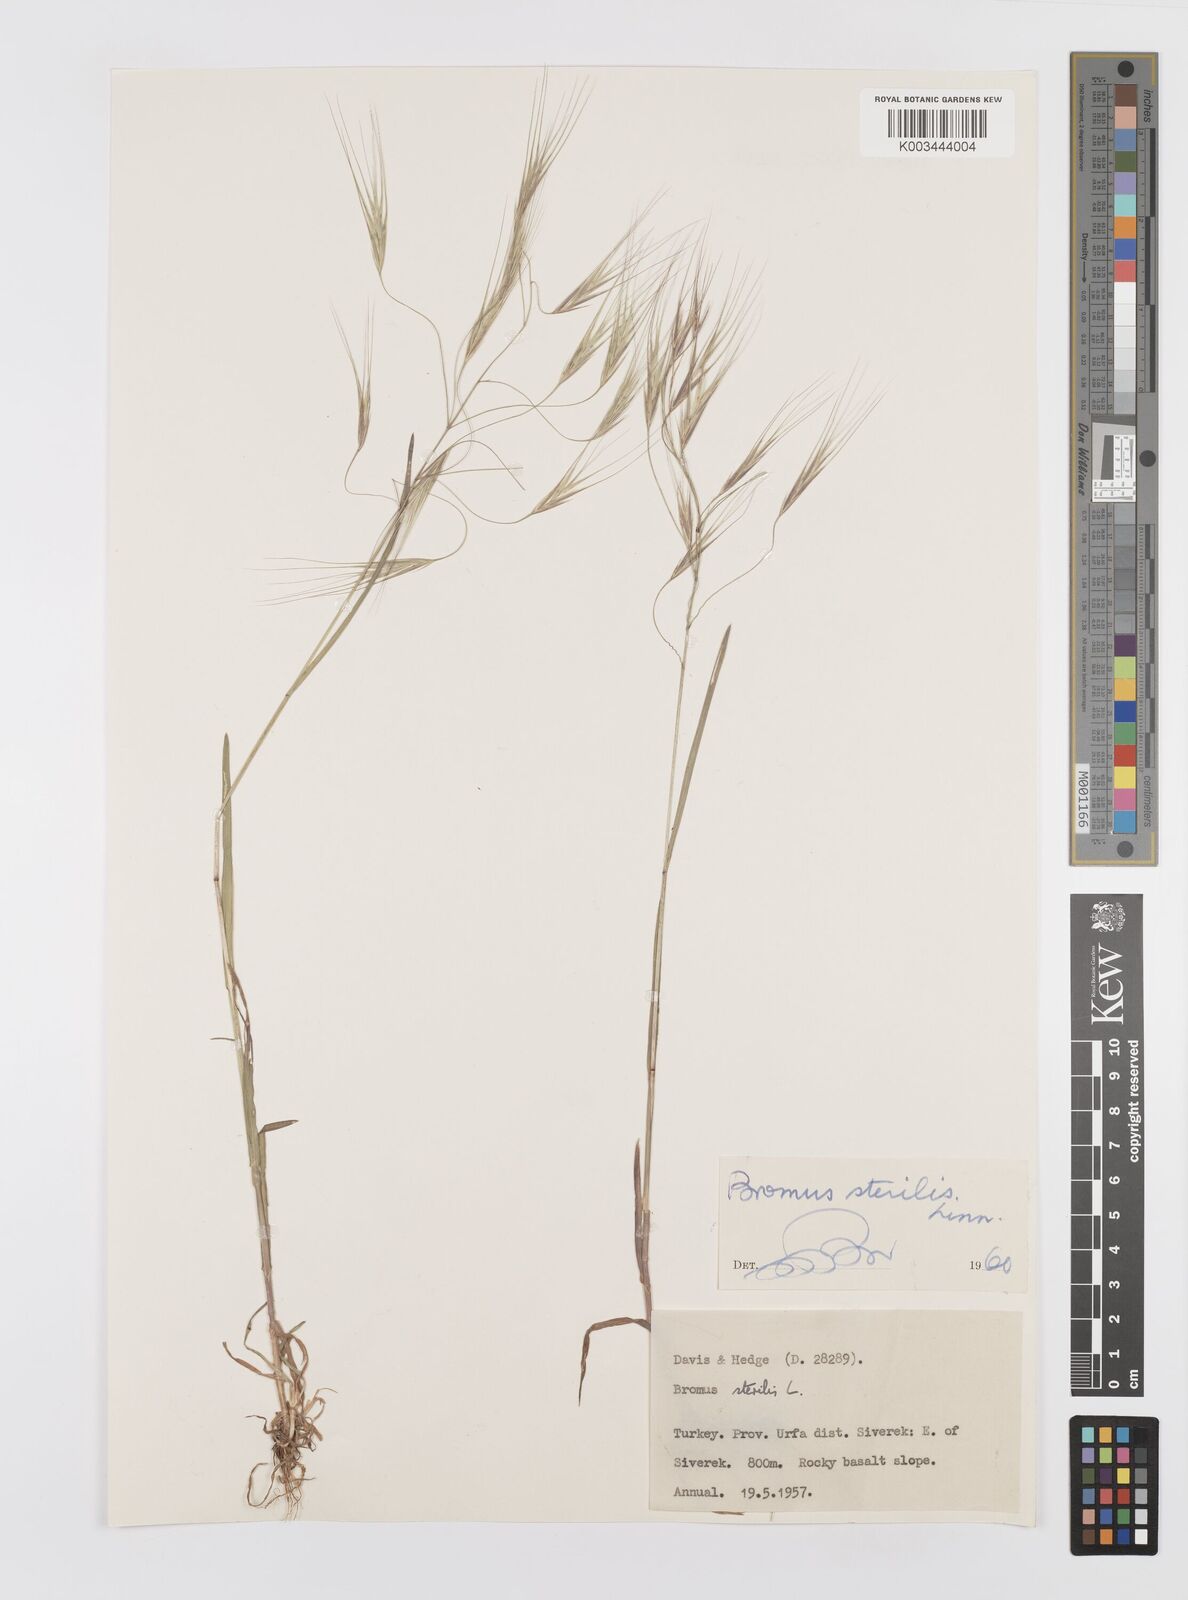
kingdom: Plantae
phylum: Tracheophyta
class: Liliopsida
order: Poales
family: Poaceae
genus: Bromus
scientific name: Bromus sterilis
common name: Poverty brome
